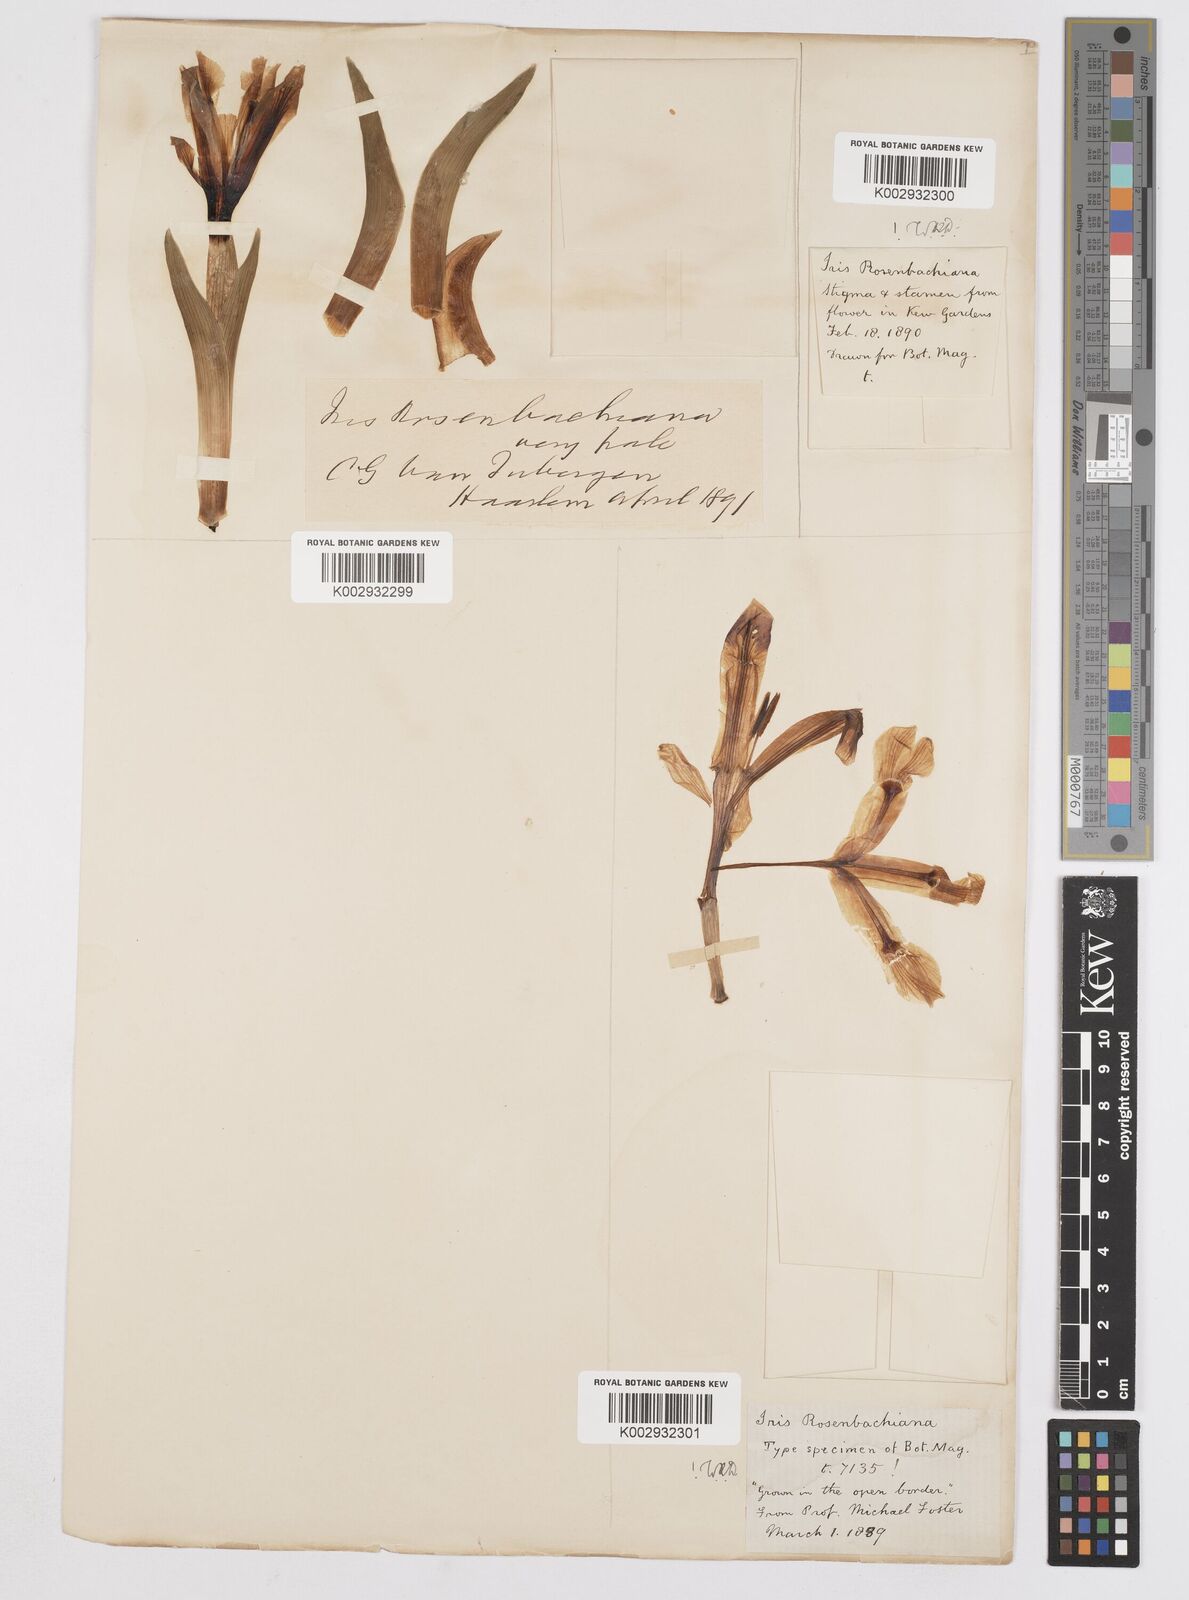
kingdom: Plantae
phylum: Tracheophyta
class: Liliopsida
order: Asparagales
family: Iridaceae
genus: Iris
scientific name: Iris rosenbachiana
